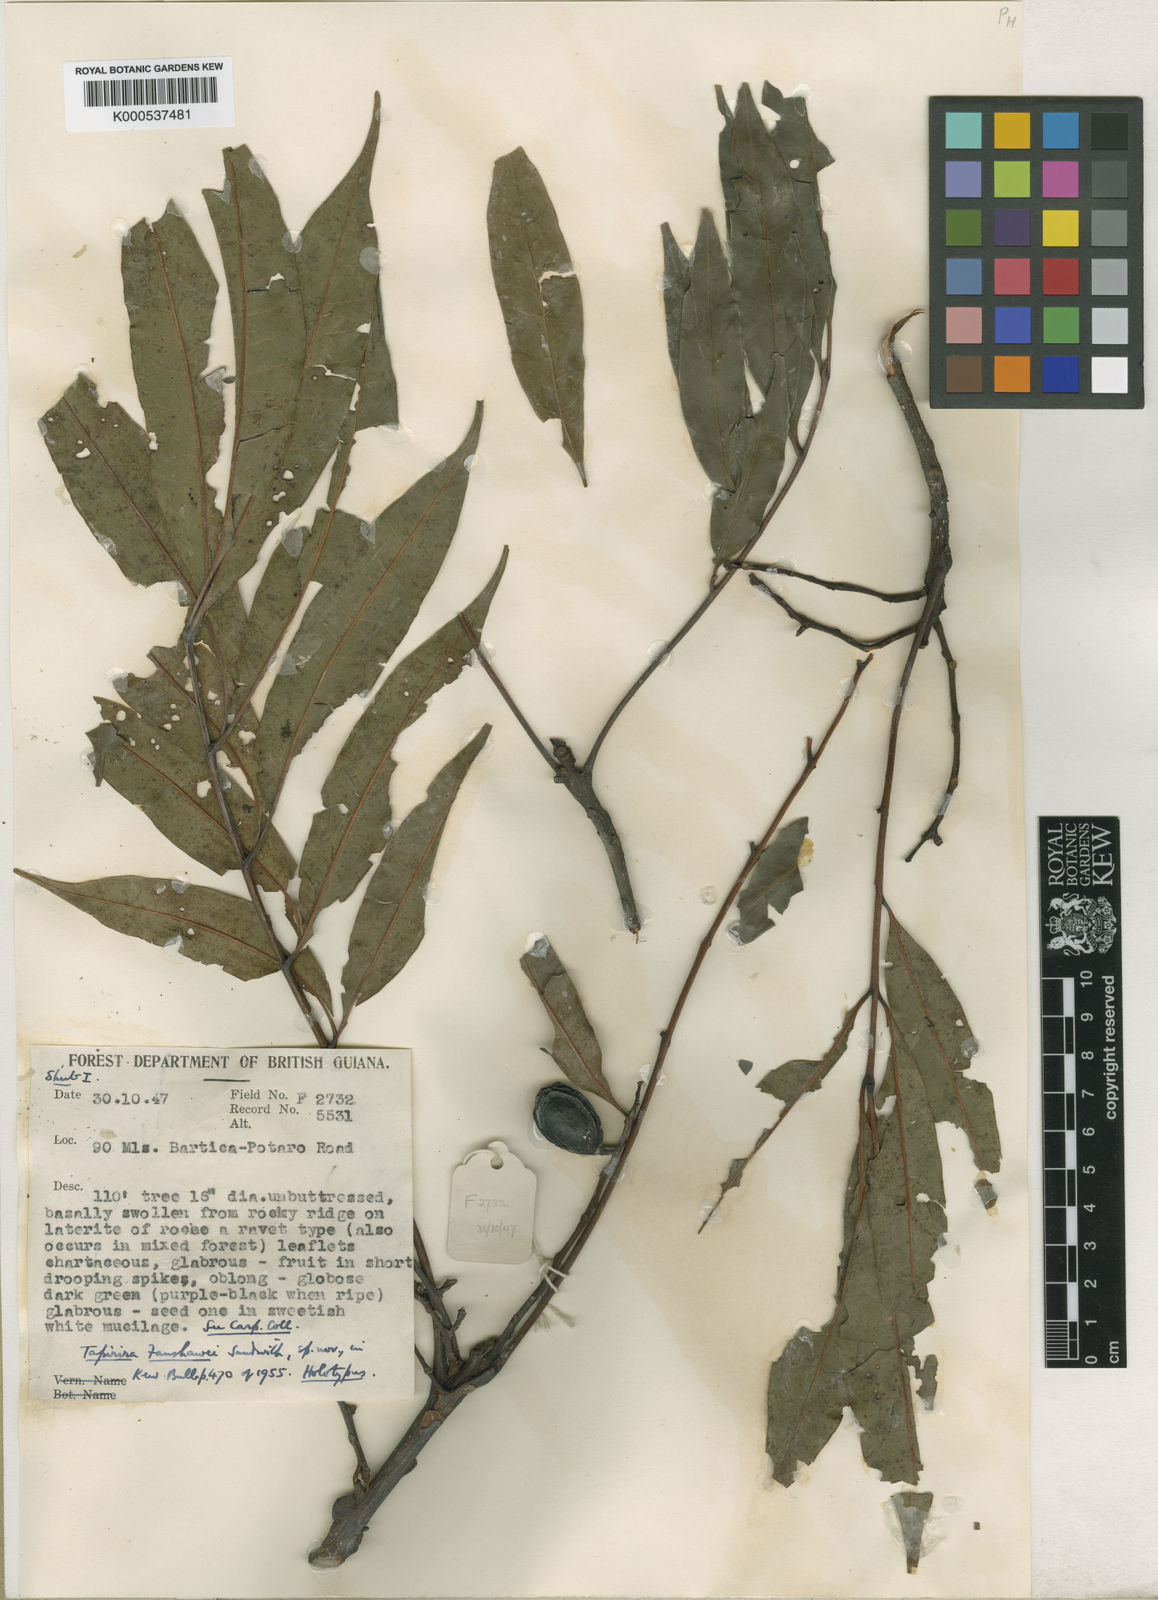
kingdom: Plantae
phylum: Tracheophyta
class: Magnoliopsida
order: Sapindales
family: Anacardiaceae
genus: Tapirira
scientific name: Tapirira guianensis
